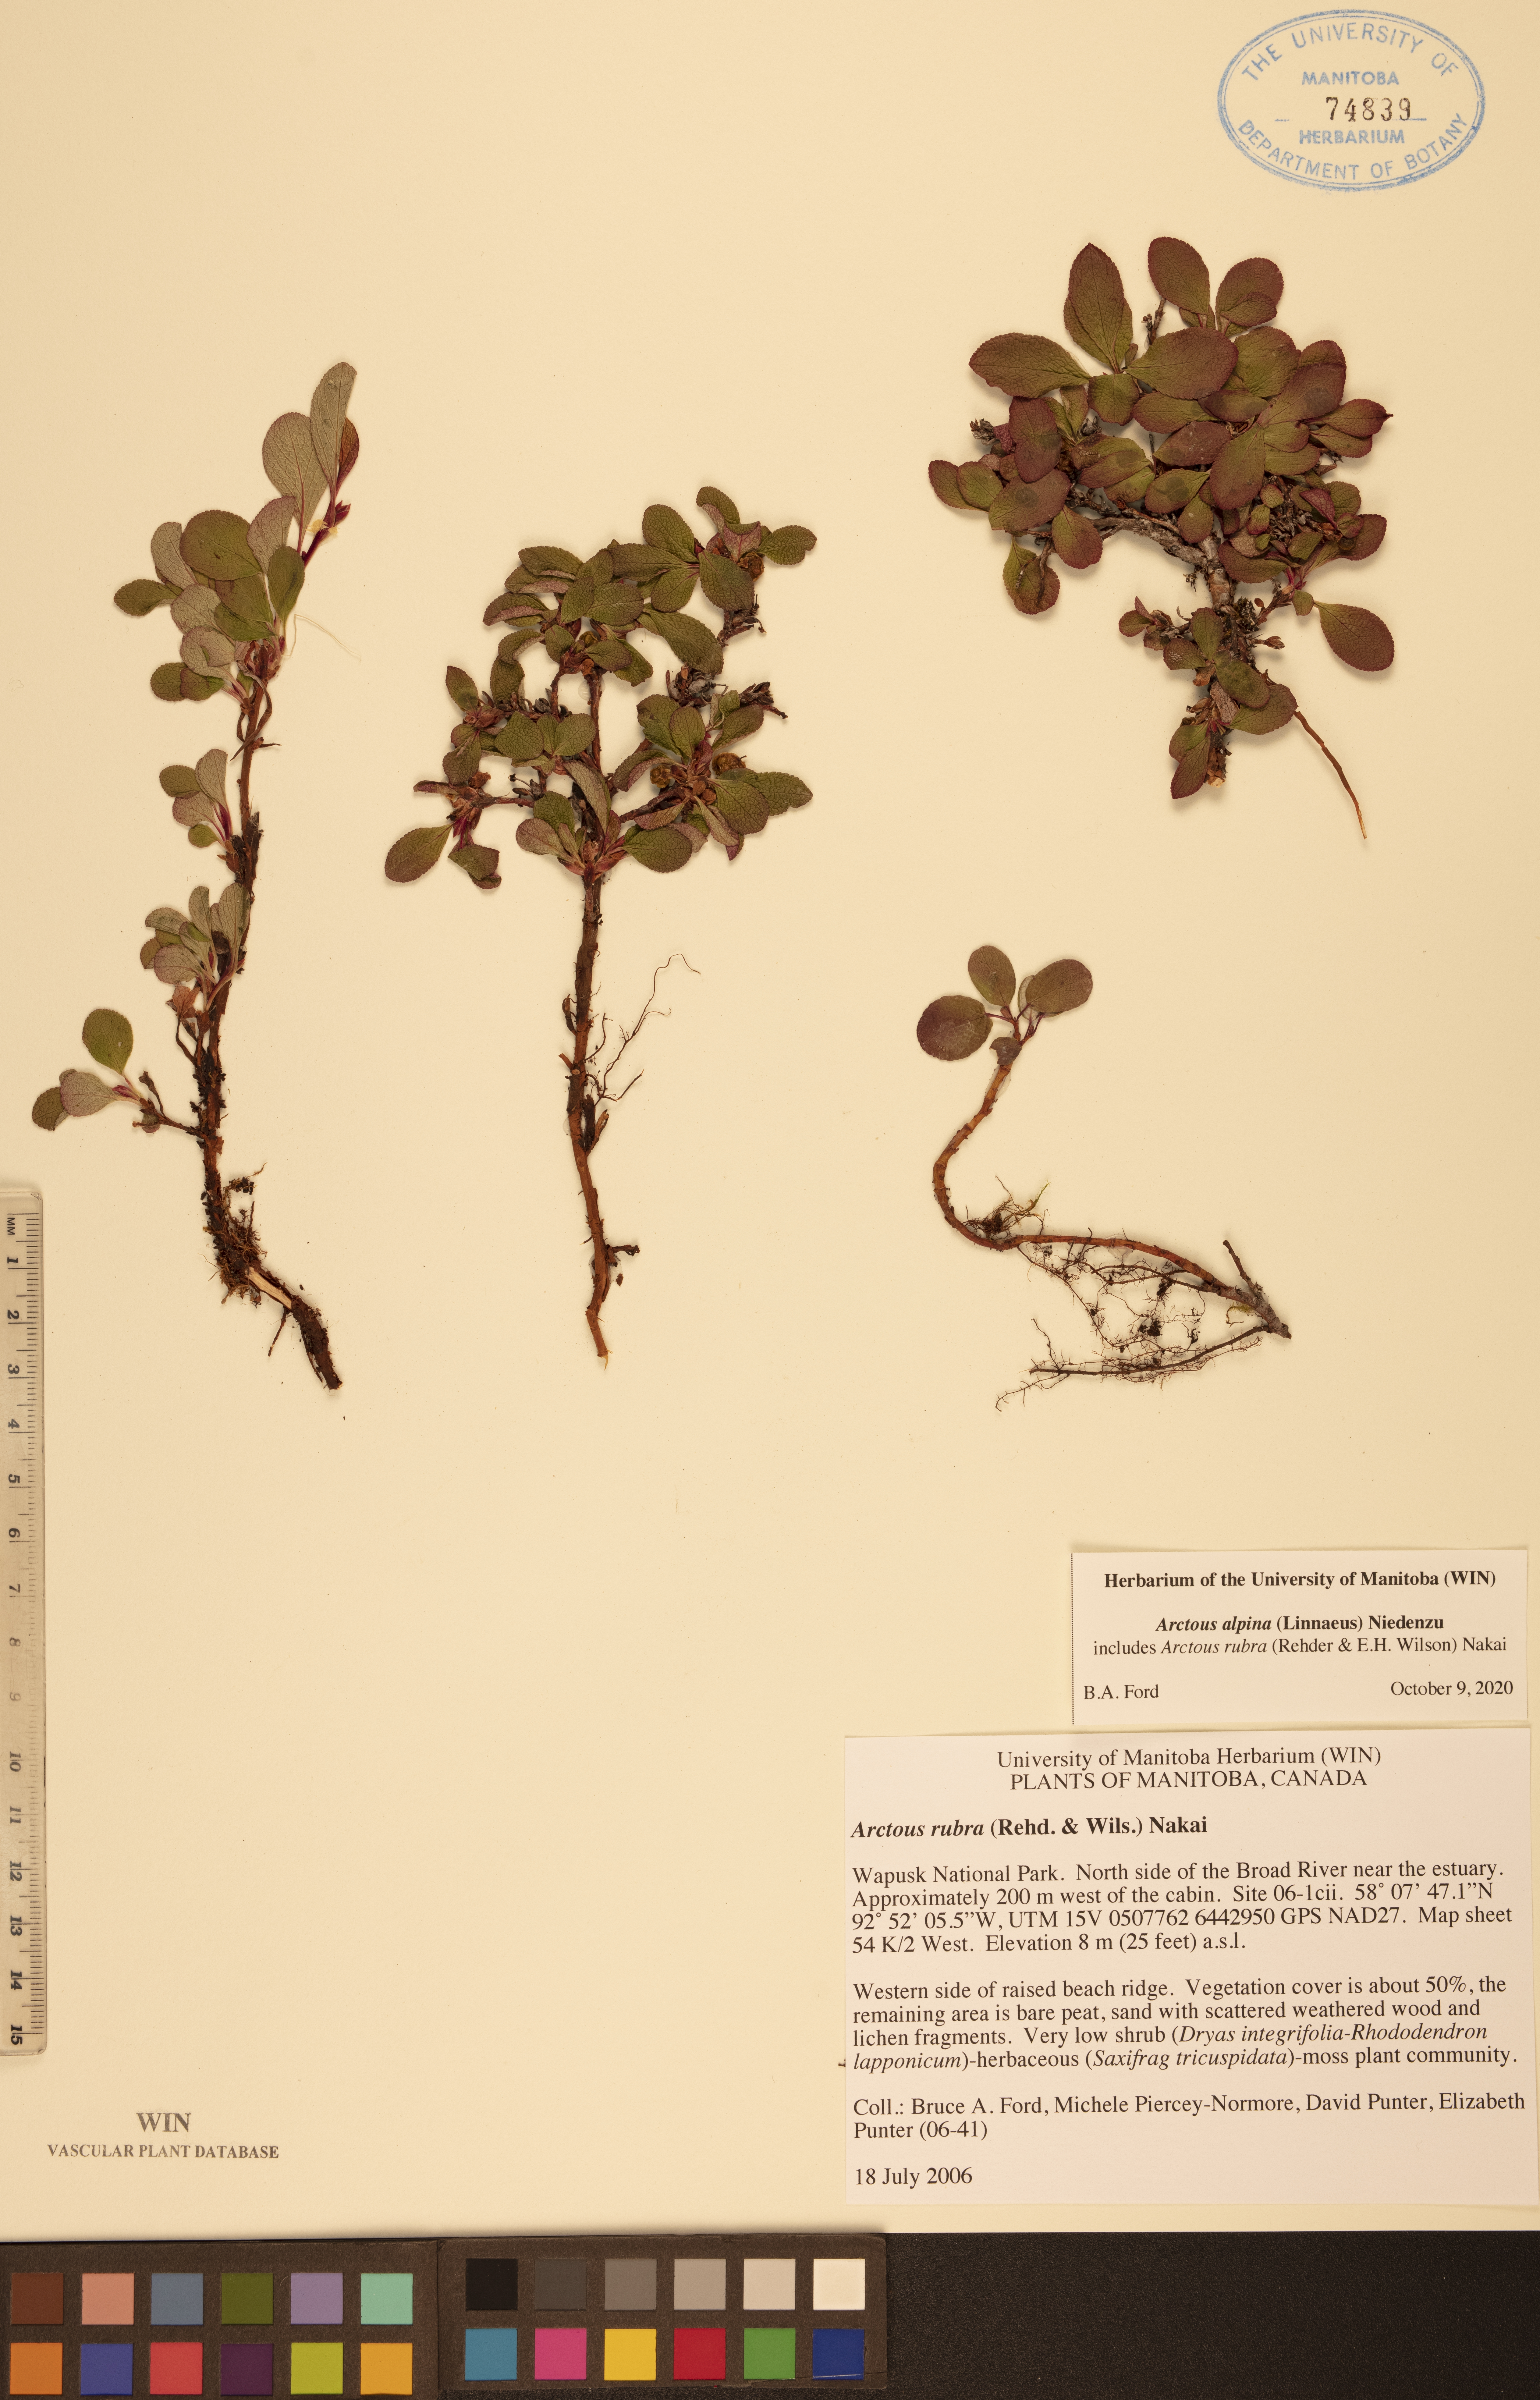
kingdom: Plantae
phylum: Tracheophyta
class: Magnoliopsida
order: Ericales
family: Ericaceae
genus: Arctostaphylos
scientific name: Arctostaphylos alpinus
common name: Alpine bearberry
